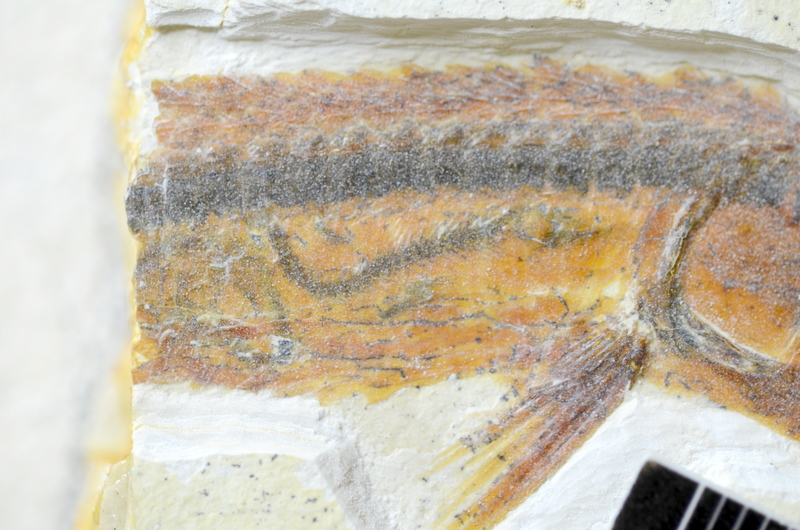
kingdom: Animalia
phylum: Chordata
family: Aspidorhynchidae
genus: Belonostomus
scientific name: Belonostomus kochii
